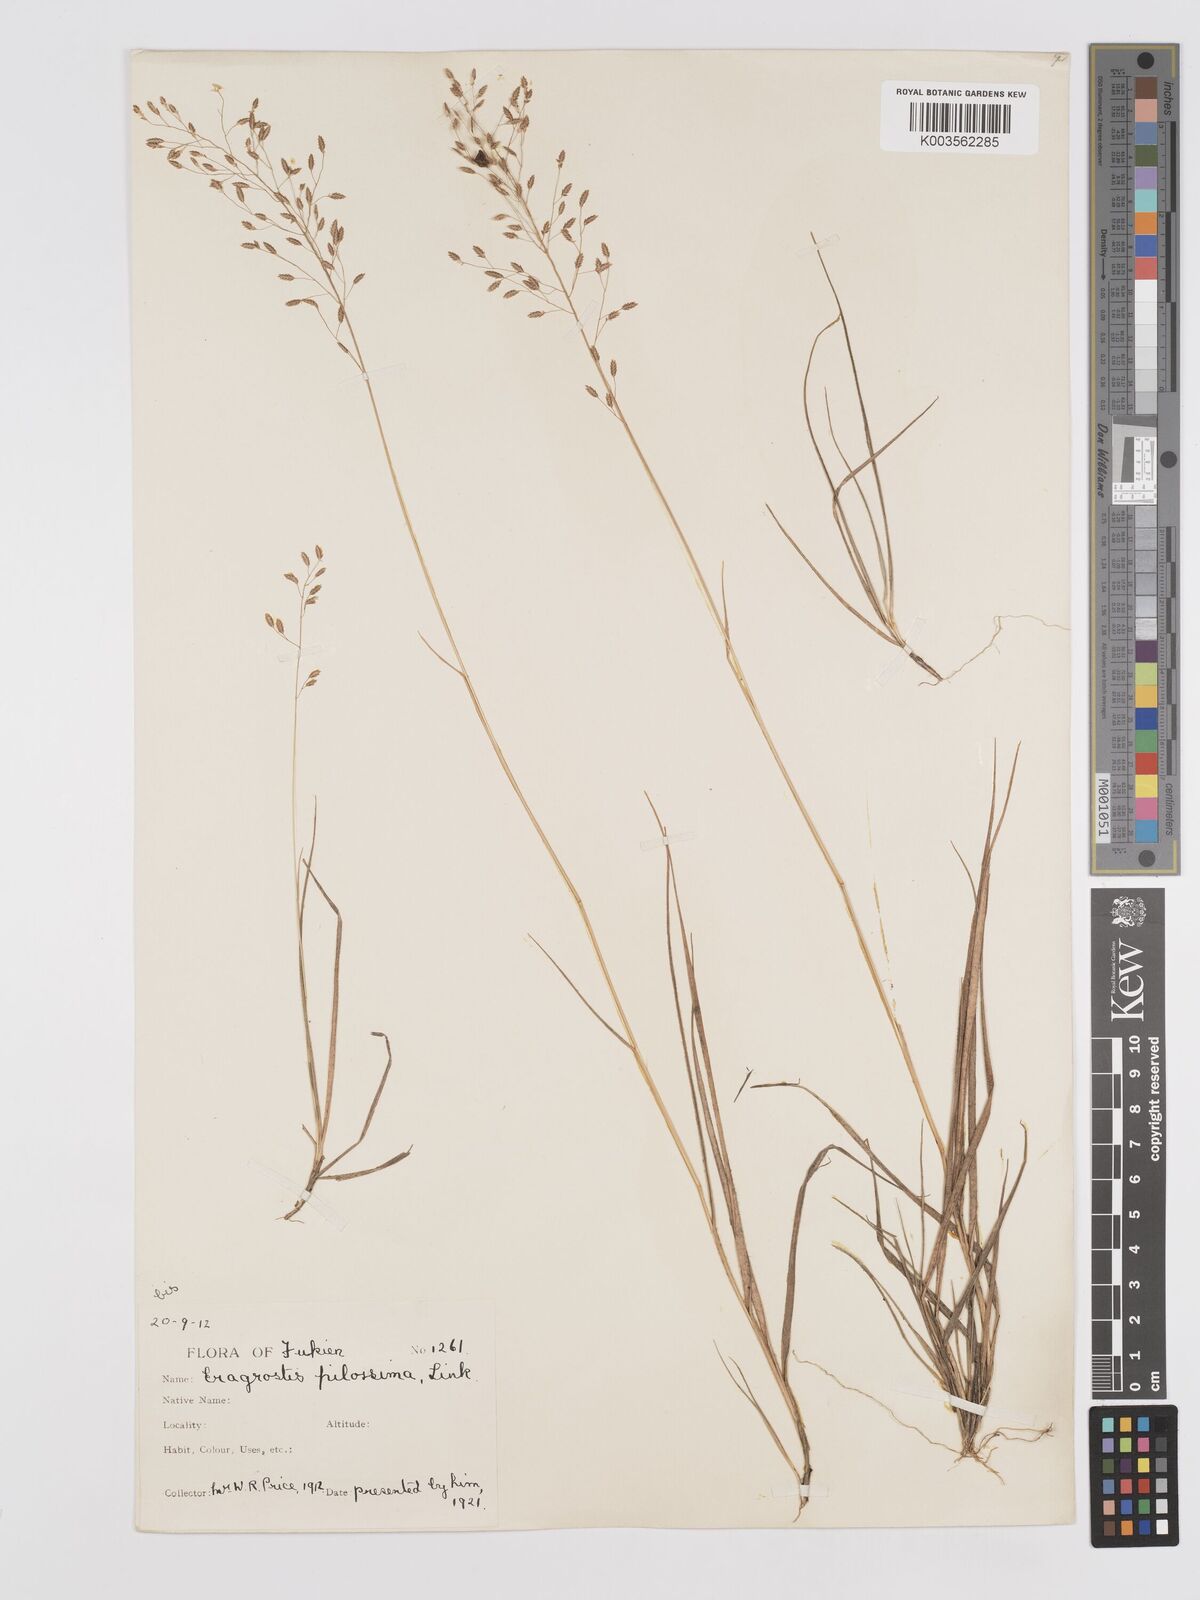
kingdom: Plantae
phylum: Tracheophyta
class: Liliopsida
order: Poales
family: Poaceae
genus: Eragrostis
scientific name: Eragrostis pilosissima
